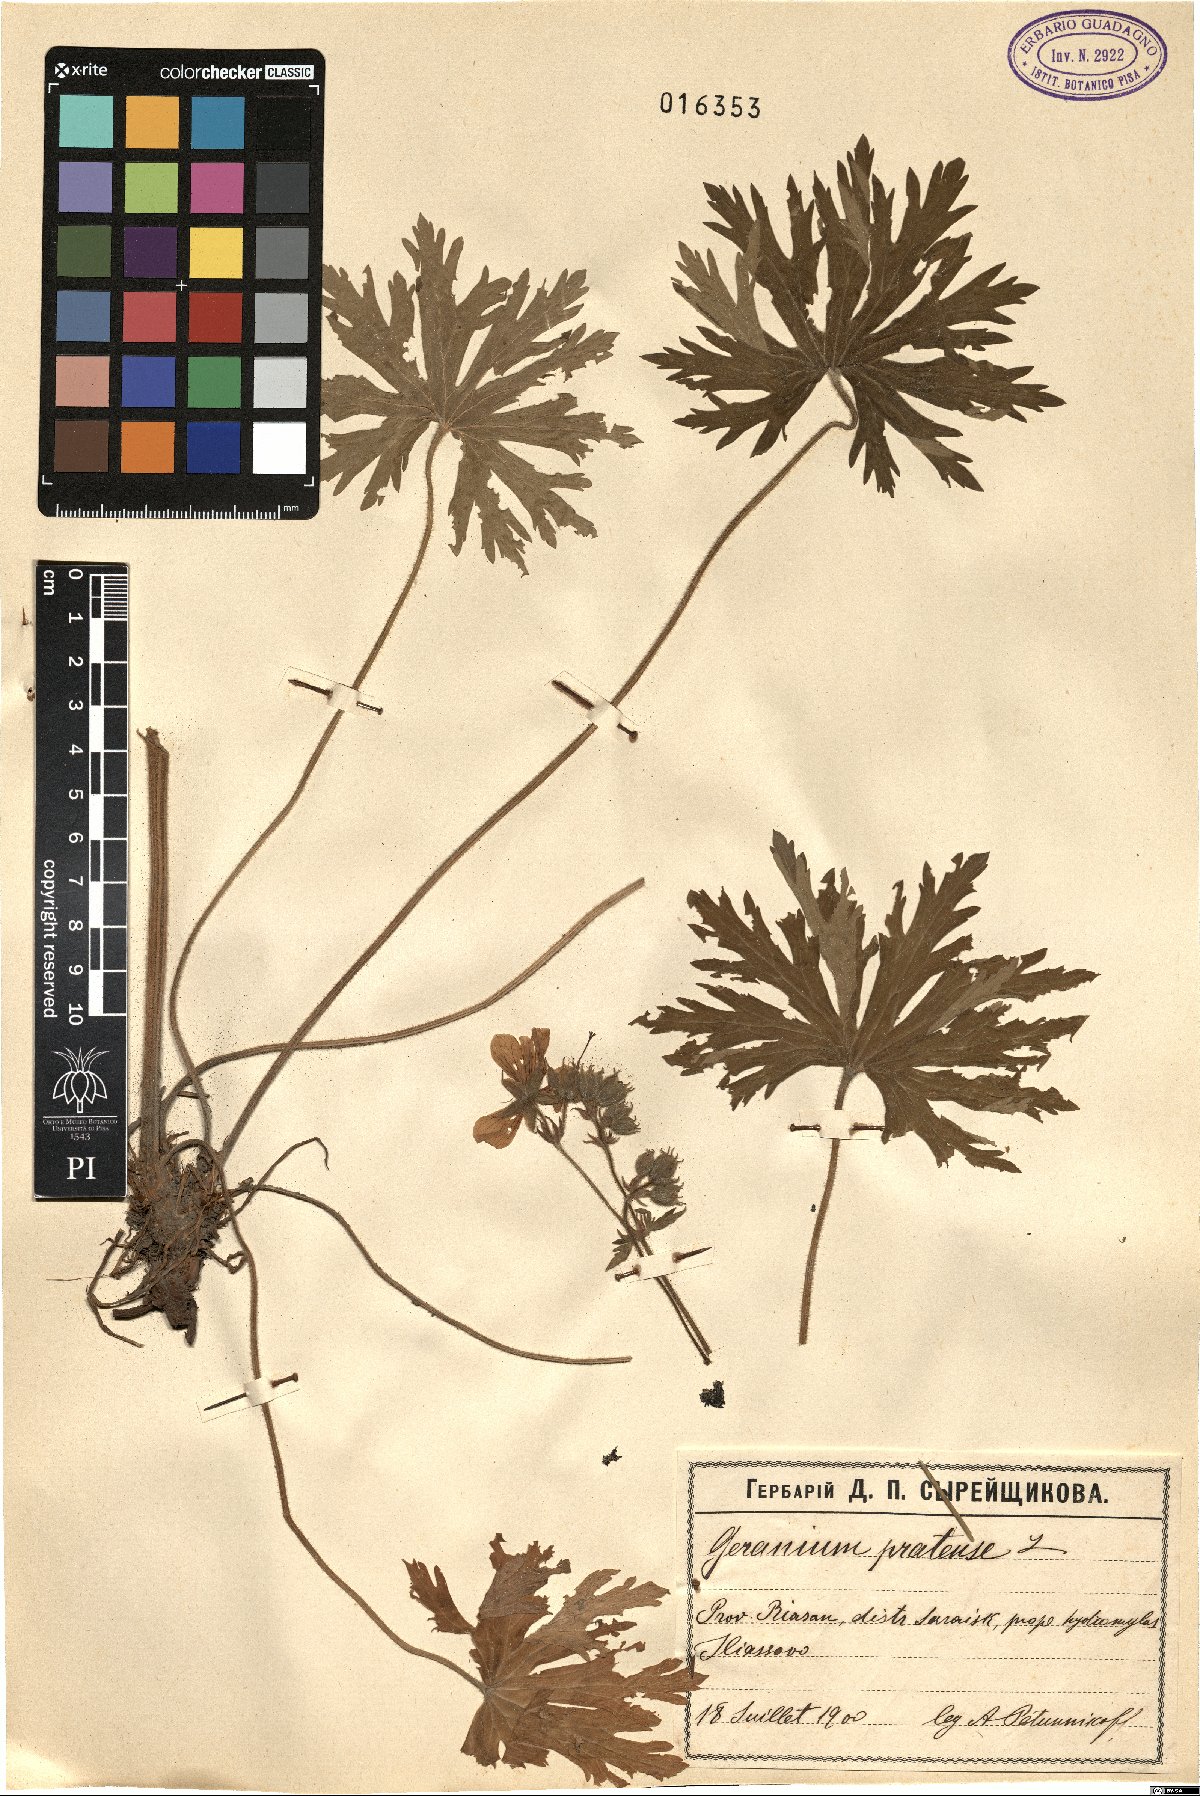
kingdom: Plantae
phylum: Tracheophyta
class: Magnoliopsida
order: Geraniales
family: Geraniaceae
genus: Geranium
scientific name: Geranium pratense
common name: Meadow crane's-bill
